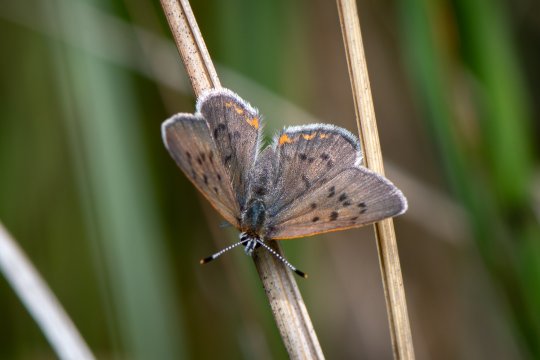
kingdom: Animalia
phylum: Arthropoda
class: Insecta
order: Lepidoptera
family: Sesiidae
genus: Sesia
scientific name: Sesia Lycaena epixanthe
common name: Bog Copper
